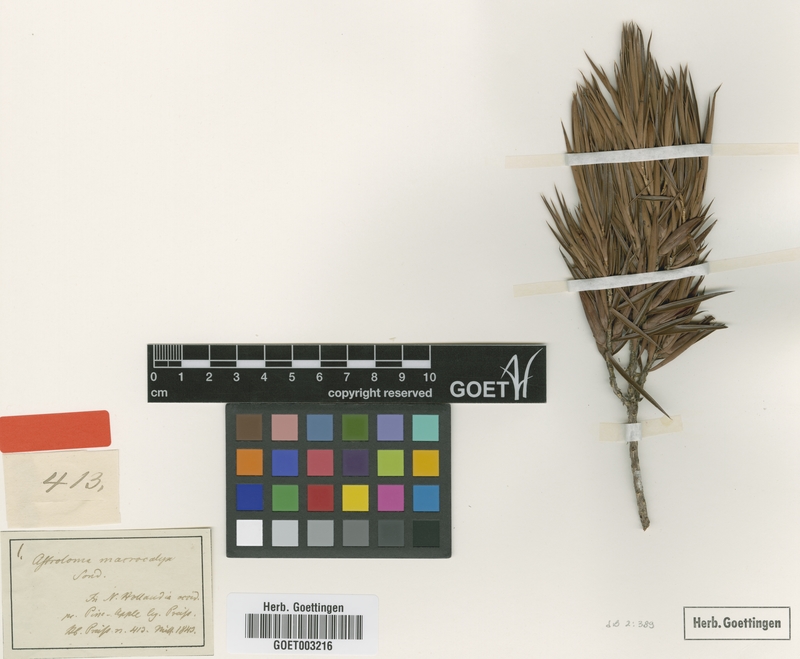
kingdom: Plantae
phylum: Tracheophyta
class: Magnoliopsida
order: Ericales
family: Ericaceae
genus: Styphelia
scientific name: Styphelia macrocalyx
